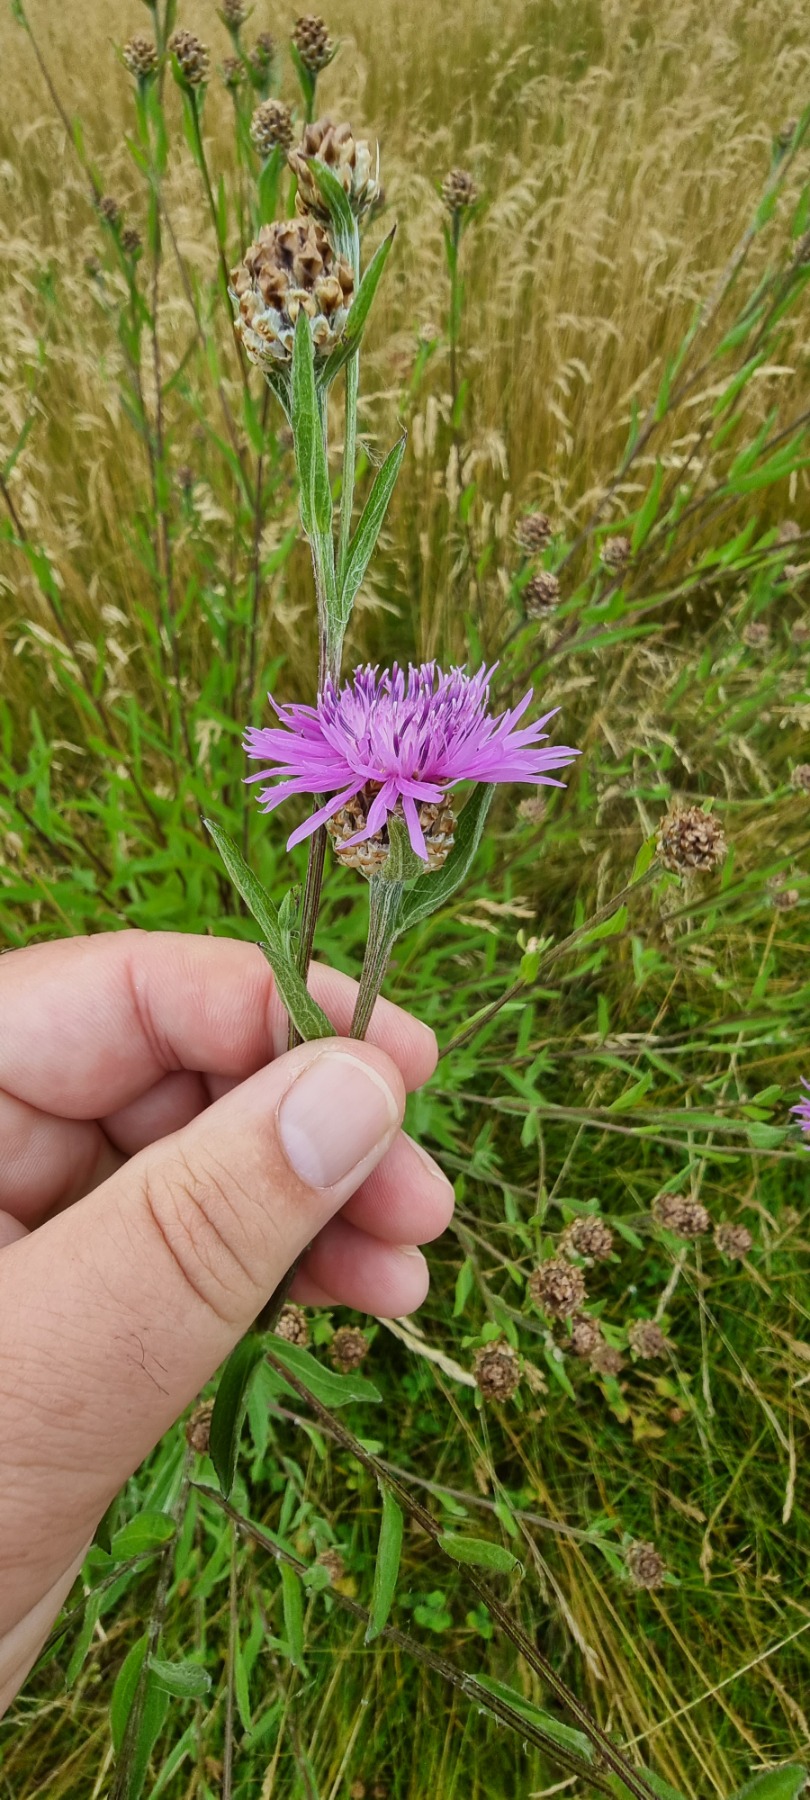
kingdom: Plantae
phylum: Tracheophyta
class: Magnoliopsida
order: Asterales
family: Asteraceae
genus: Centaurea
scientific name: Centaurea jacea
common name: Almindelig knopurt
